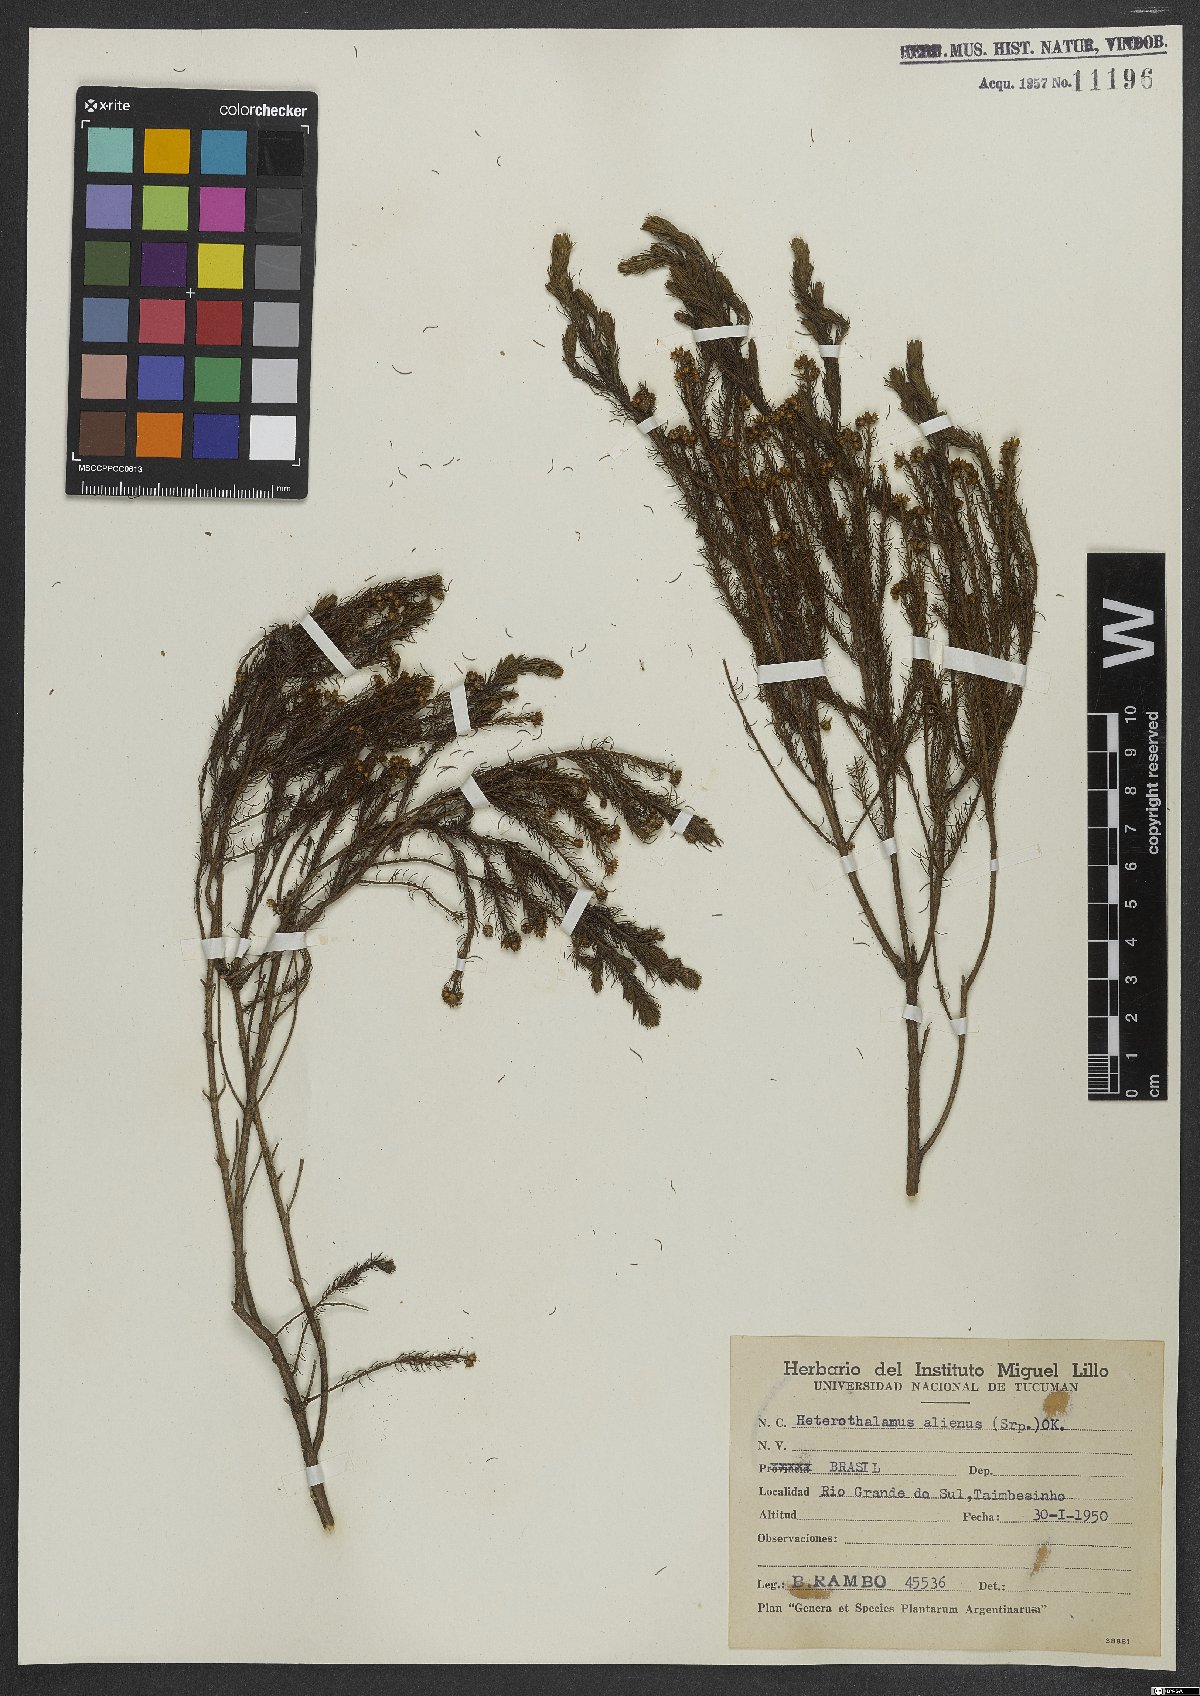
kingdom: Plantae
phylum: Tracheophyta
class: Magnoliopsida
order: Asterales
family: Asteraceae
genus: Baccharis
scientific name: Baccharis aliena
